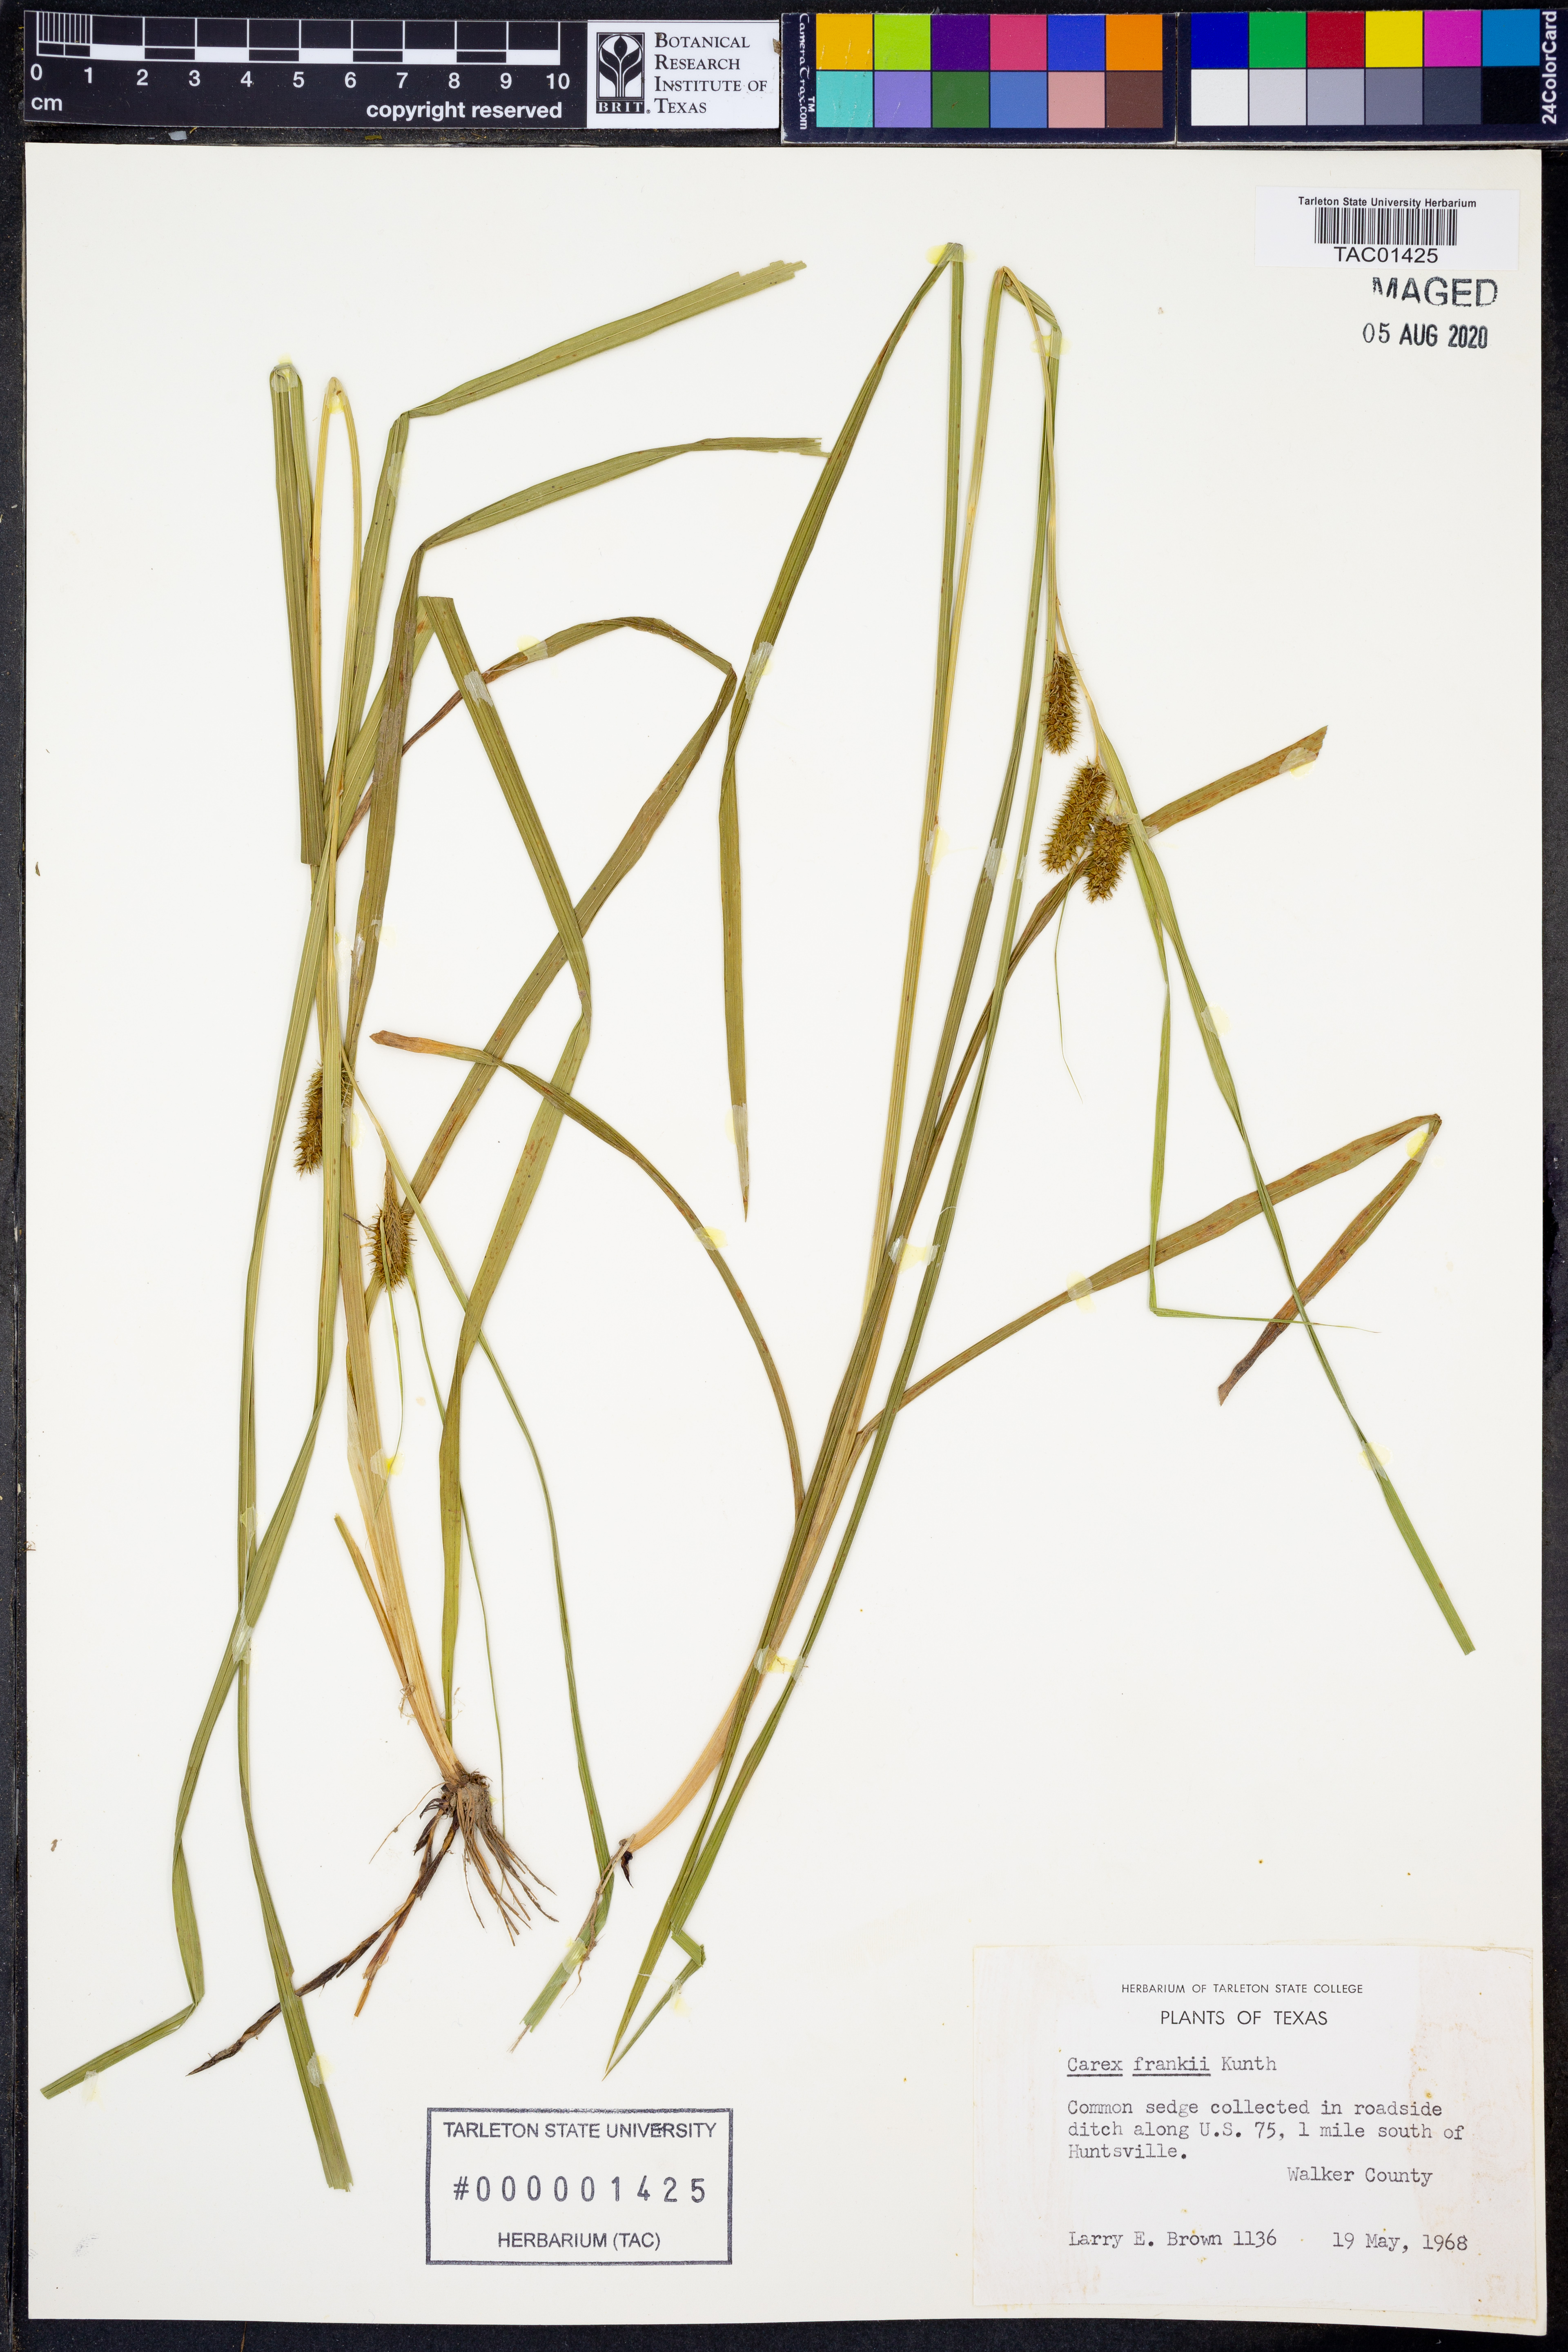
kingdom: Plantae
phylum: Tracheophyta
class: Liliopsida
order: Poales
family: Cyperaceae
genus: Carex
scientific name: Carex frankii
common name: Frank's sedge
